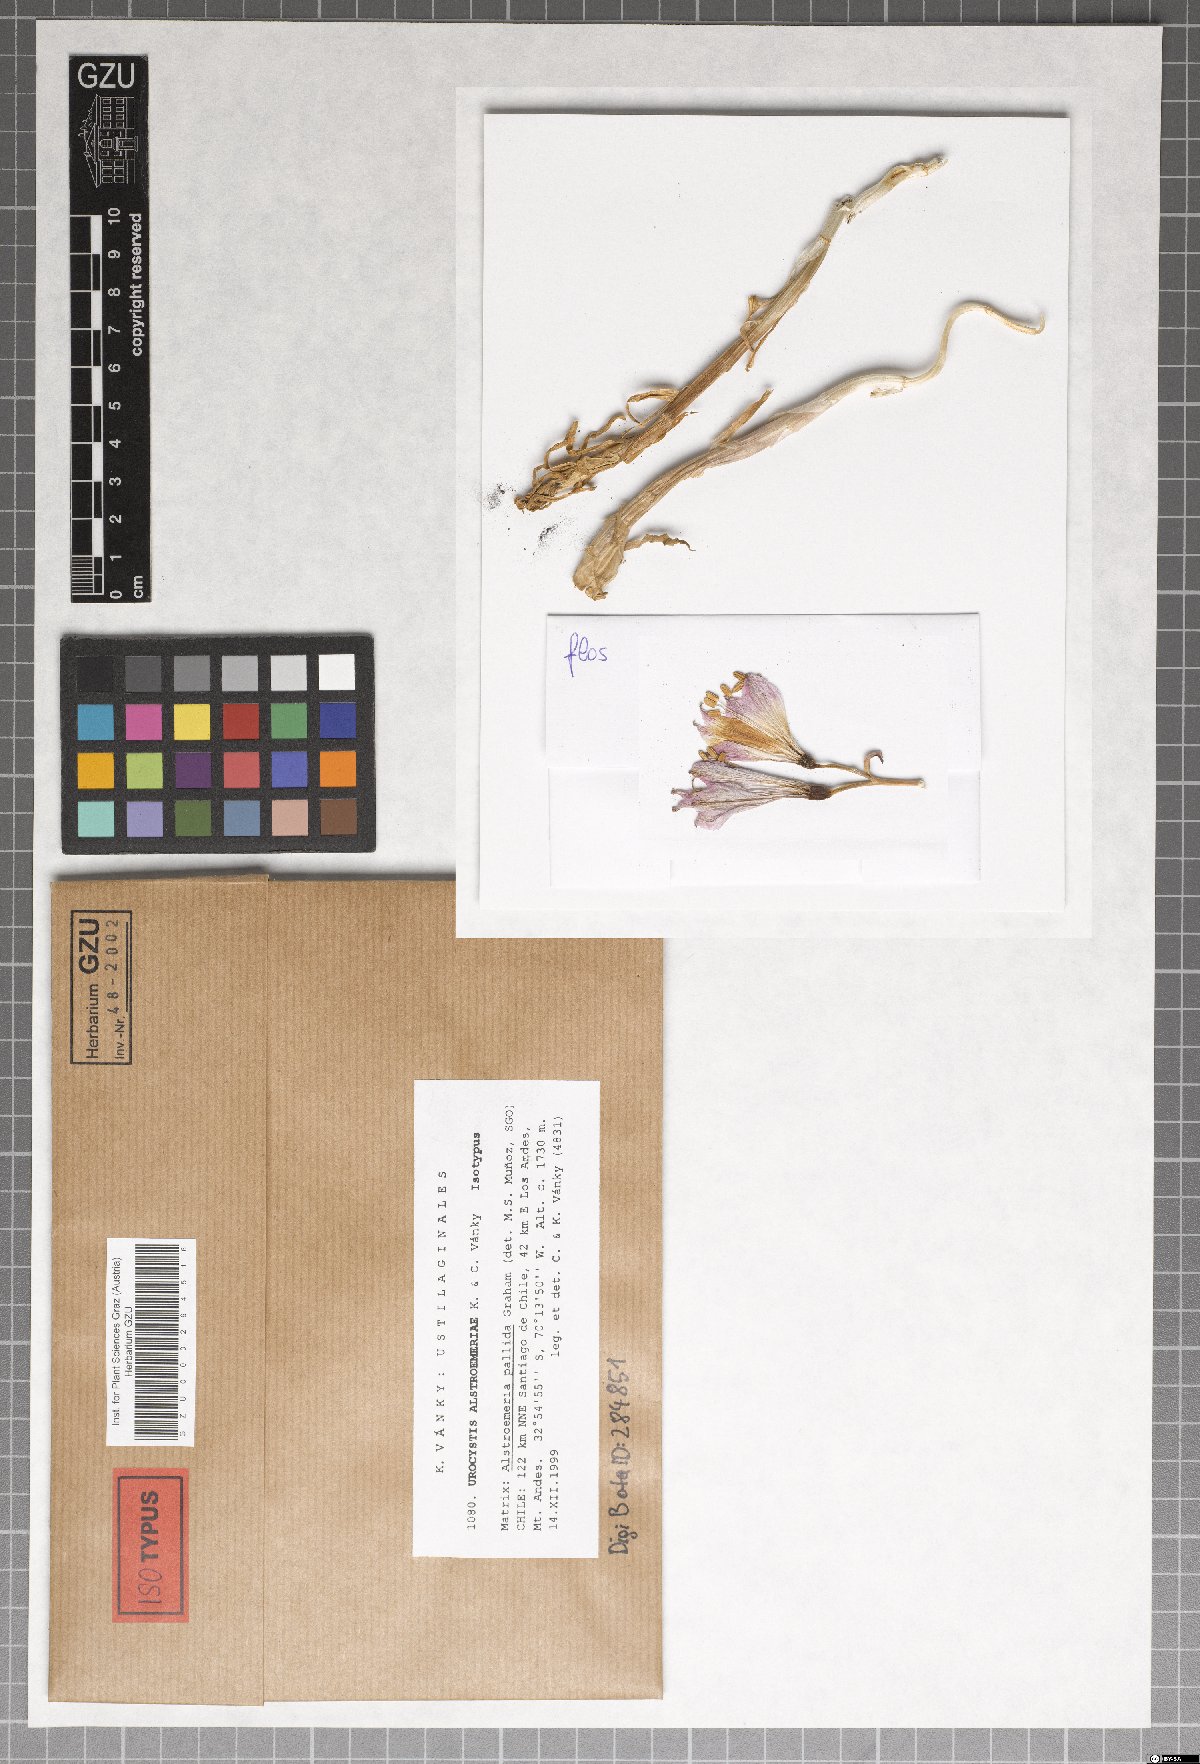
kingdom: Fungi
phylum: Basidiomycota
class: Ustilaginomycetes
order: Urocystidales
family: Urocystidaceae
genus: Urocystis
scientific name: Urocystis alstroemeriae
